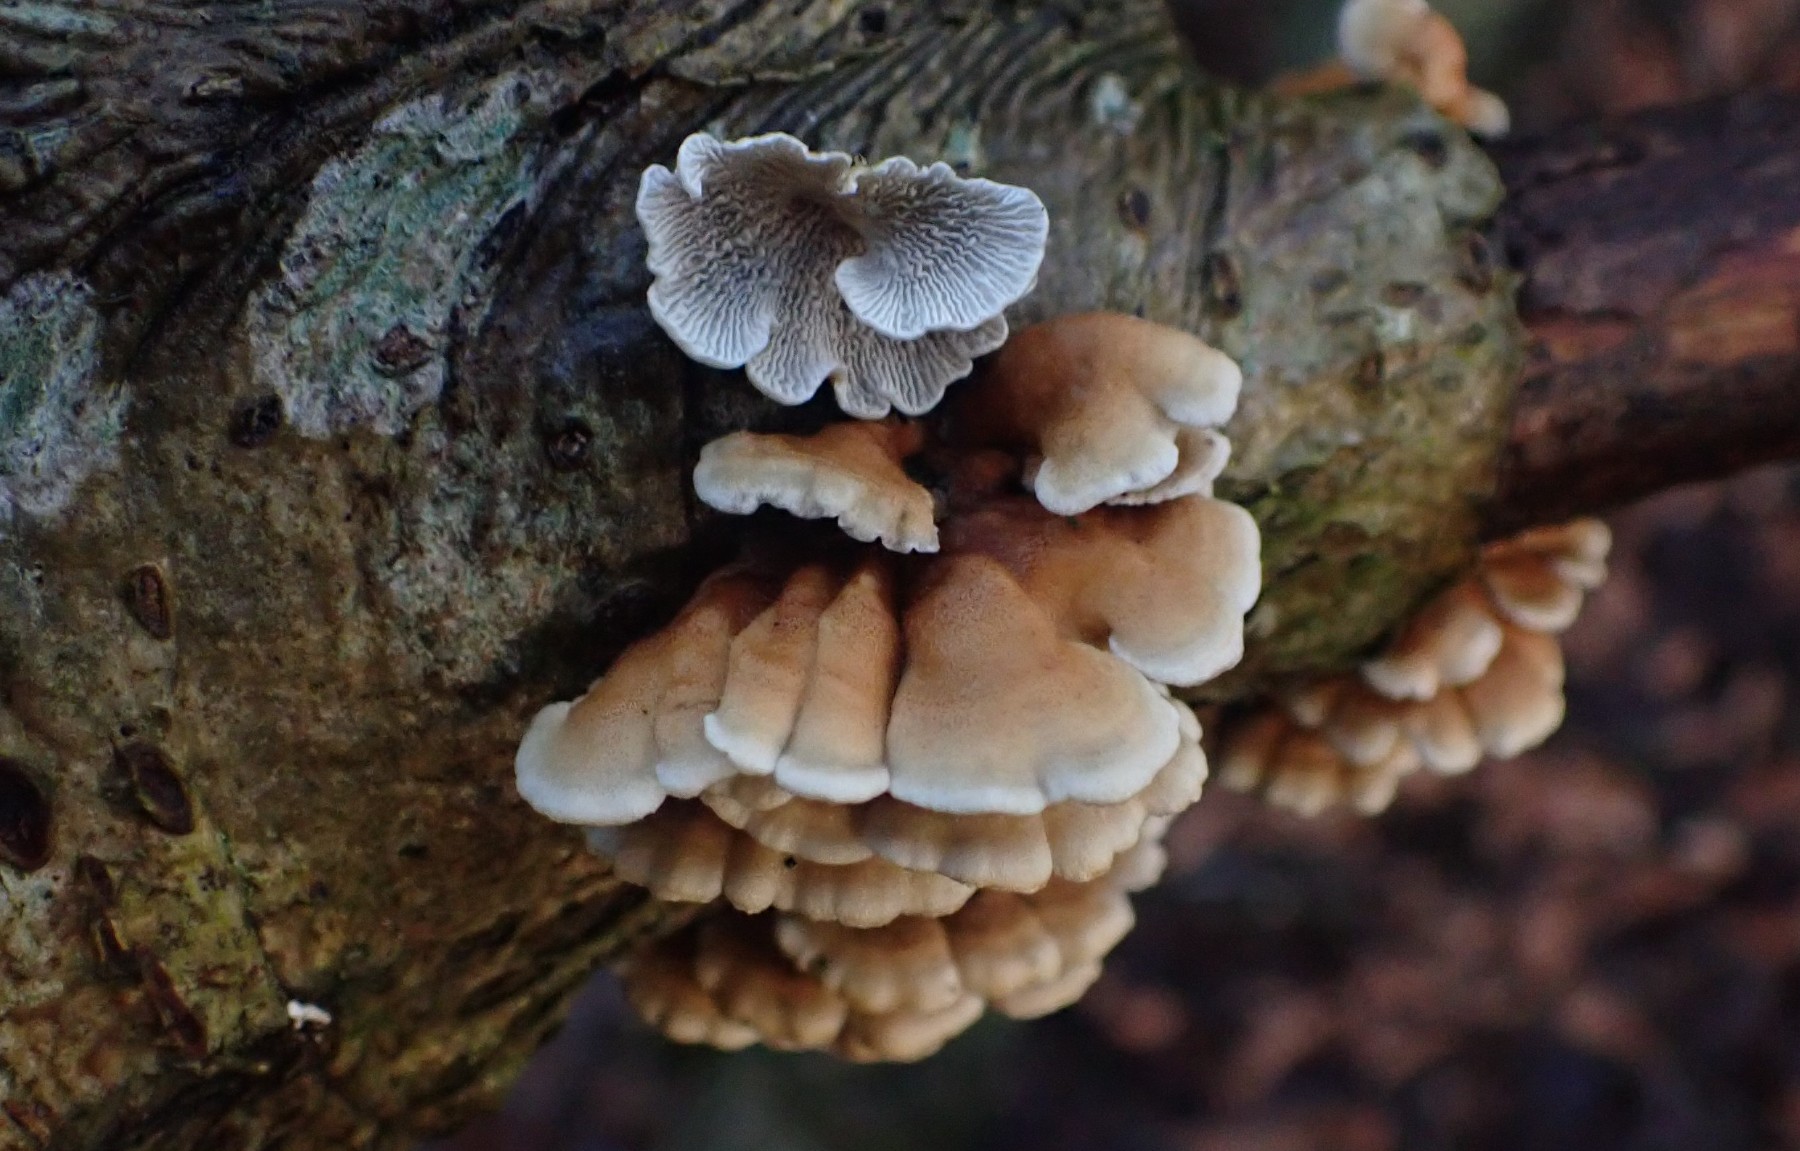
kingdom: Fungi
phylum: Basidiomycota
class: Agaricomycetes
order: Amylocorticiales
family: Amylocorticiaceae
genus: Plicaturopsis
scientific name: Plicaturopsis crispa
